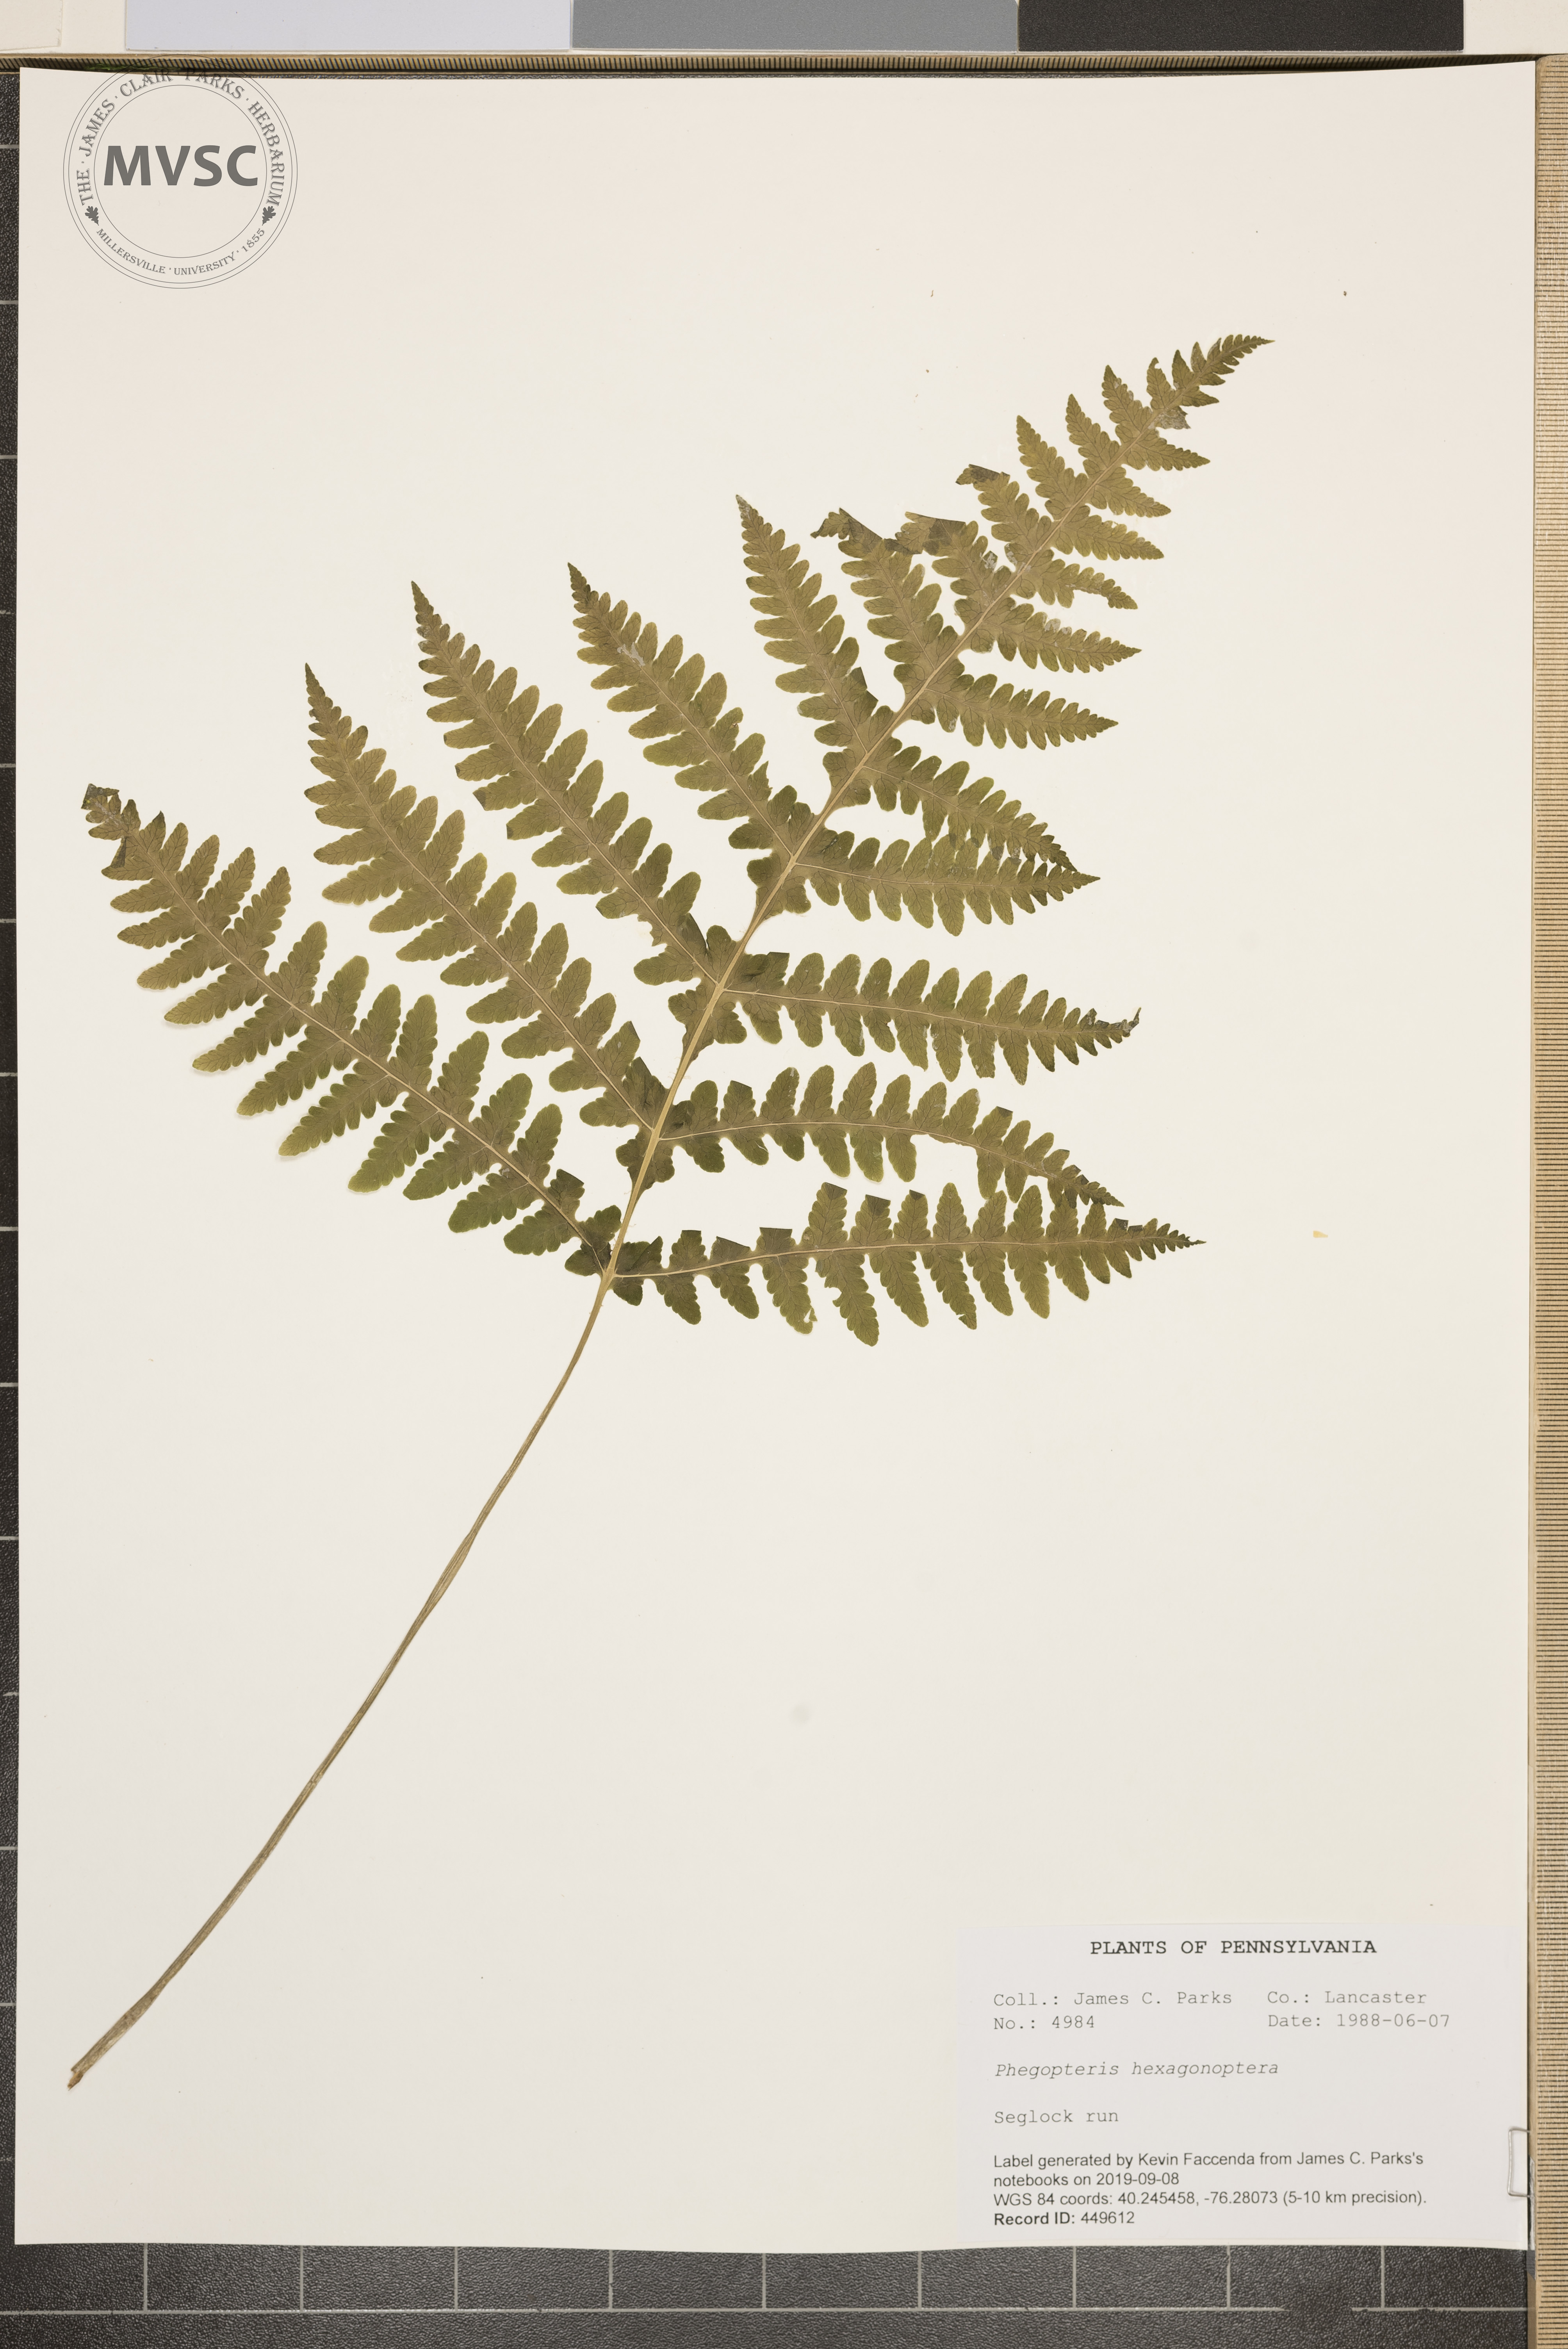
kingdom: Plantae
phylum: Tracheophyta
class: Polypodiopsida
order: Polypodiales
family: Thelypteridaceae
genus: Phegopteris
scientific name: Phegopteris hexagonoptera
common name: Broad beech fern
